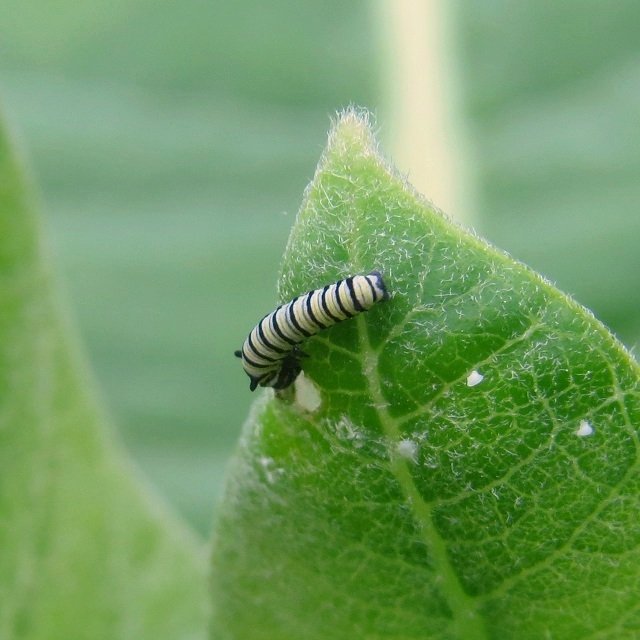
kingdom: Animalia
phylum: Arthropoda
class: Insecta
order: Lepidoptera
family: Nymphalidae
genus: Danaus
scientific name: Danaus plexippus
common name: Monarch
